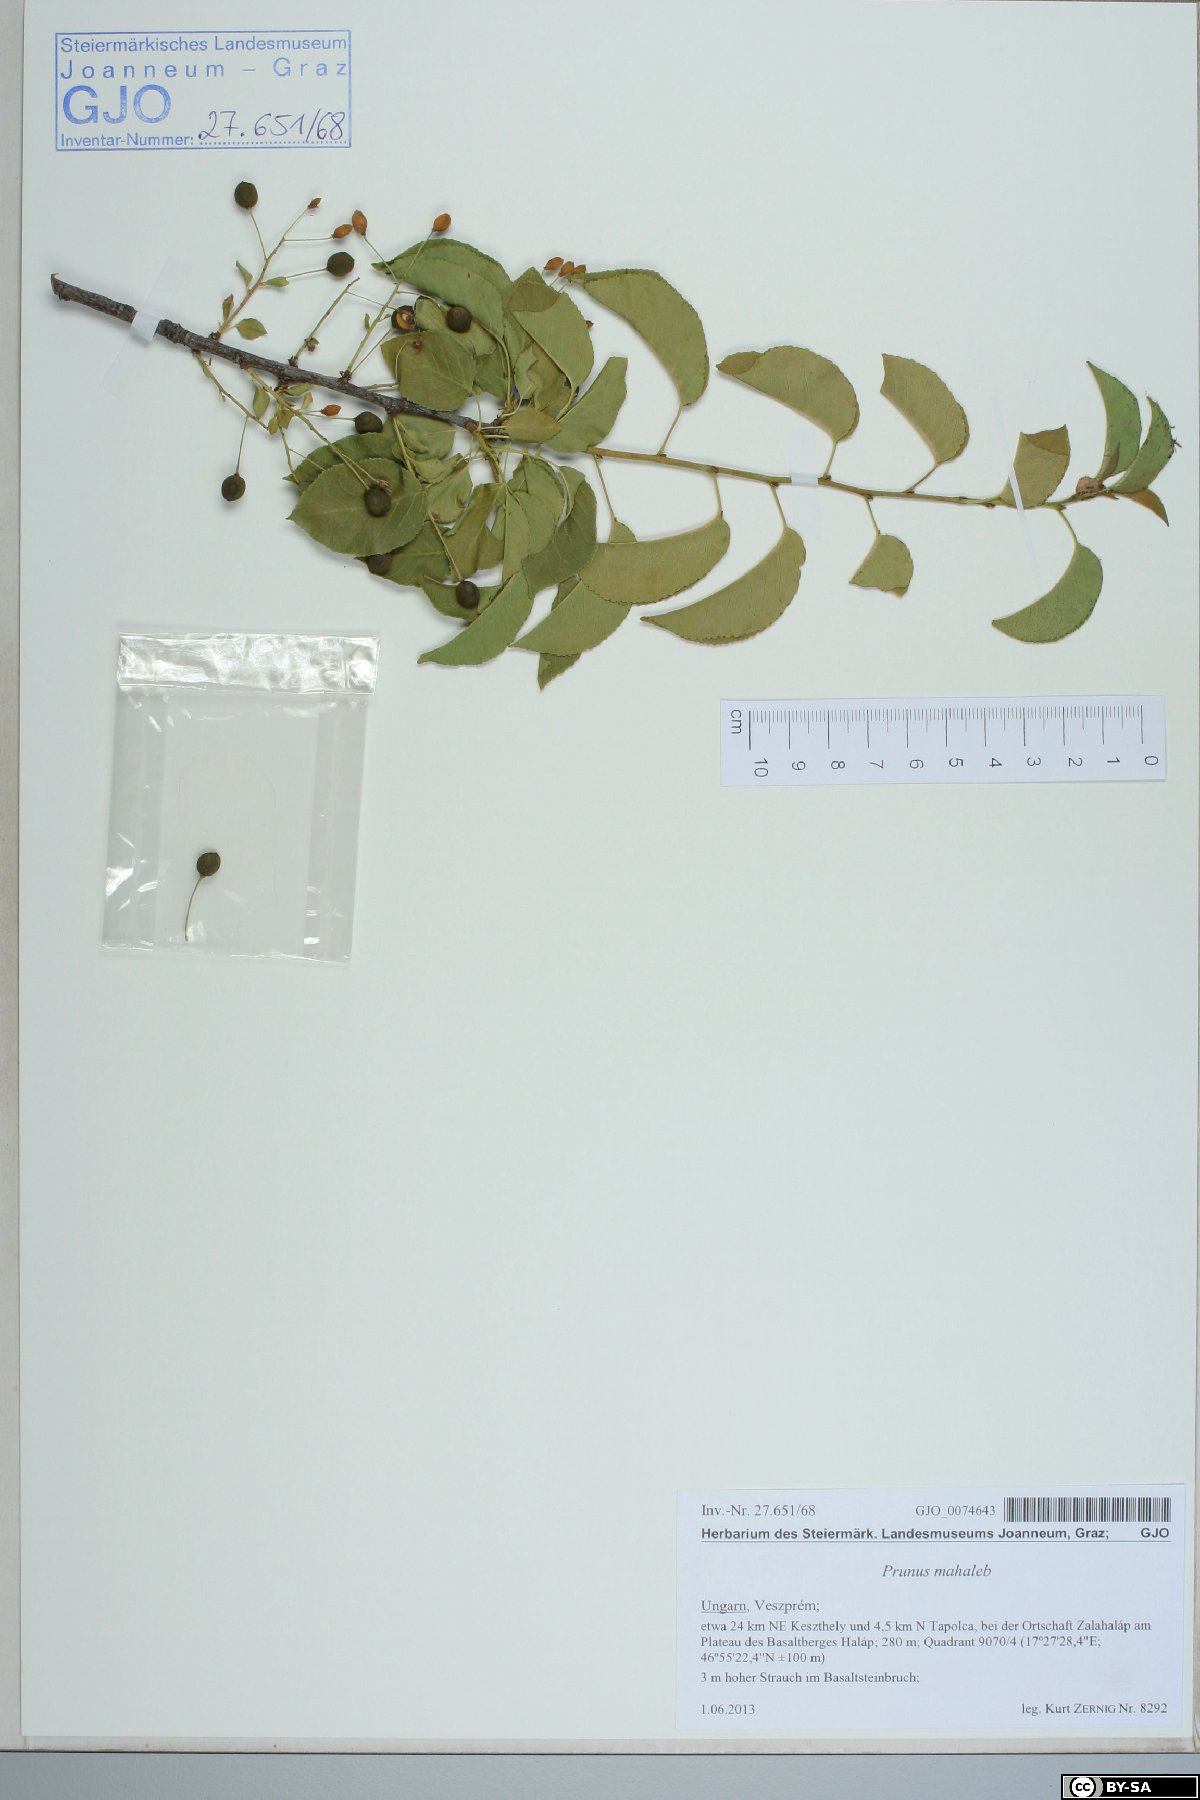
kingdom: Plantae
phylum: Tracheophyta
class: Magnoliopsida
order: Rosales
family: Rosaceae
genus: Prunus
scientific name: Prunus mahaleb
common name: Mahaleb cherry
